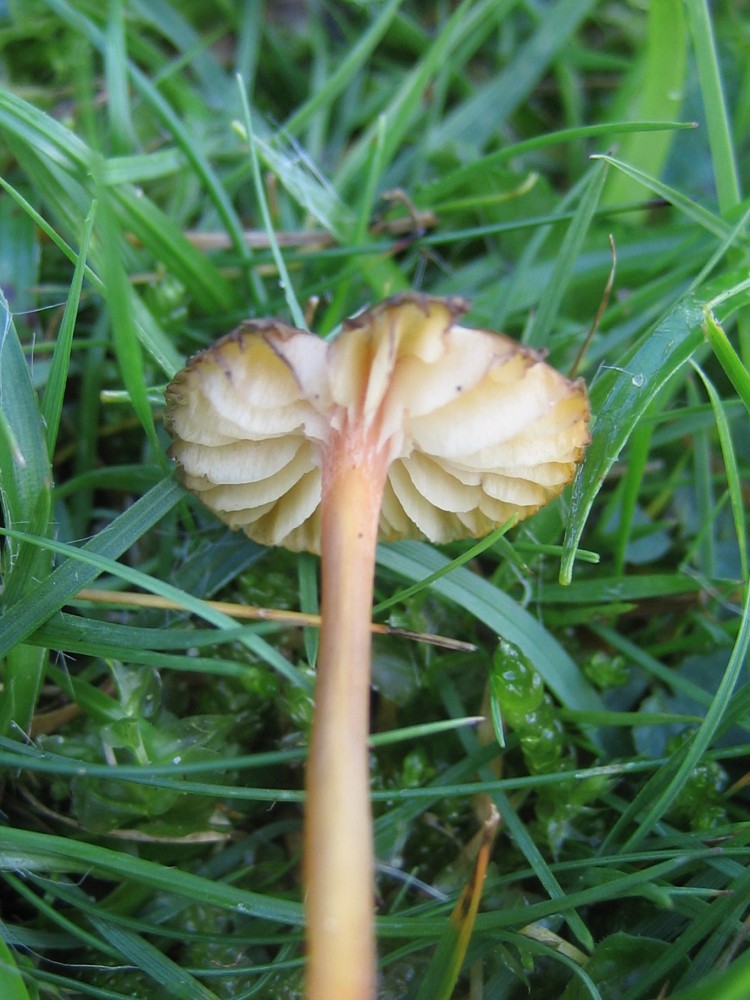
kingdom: Fungi
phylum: Basidiomycota
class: Agaricomycetes
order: Agaricales
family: Hygrophoraceae
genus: Hygrocybe
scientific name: Hygrocybe
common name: vokshat
